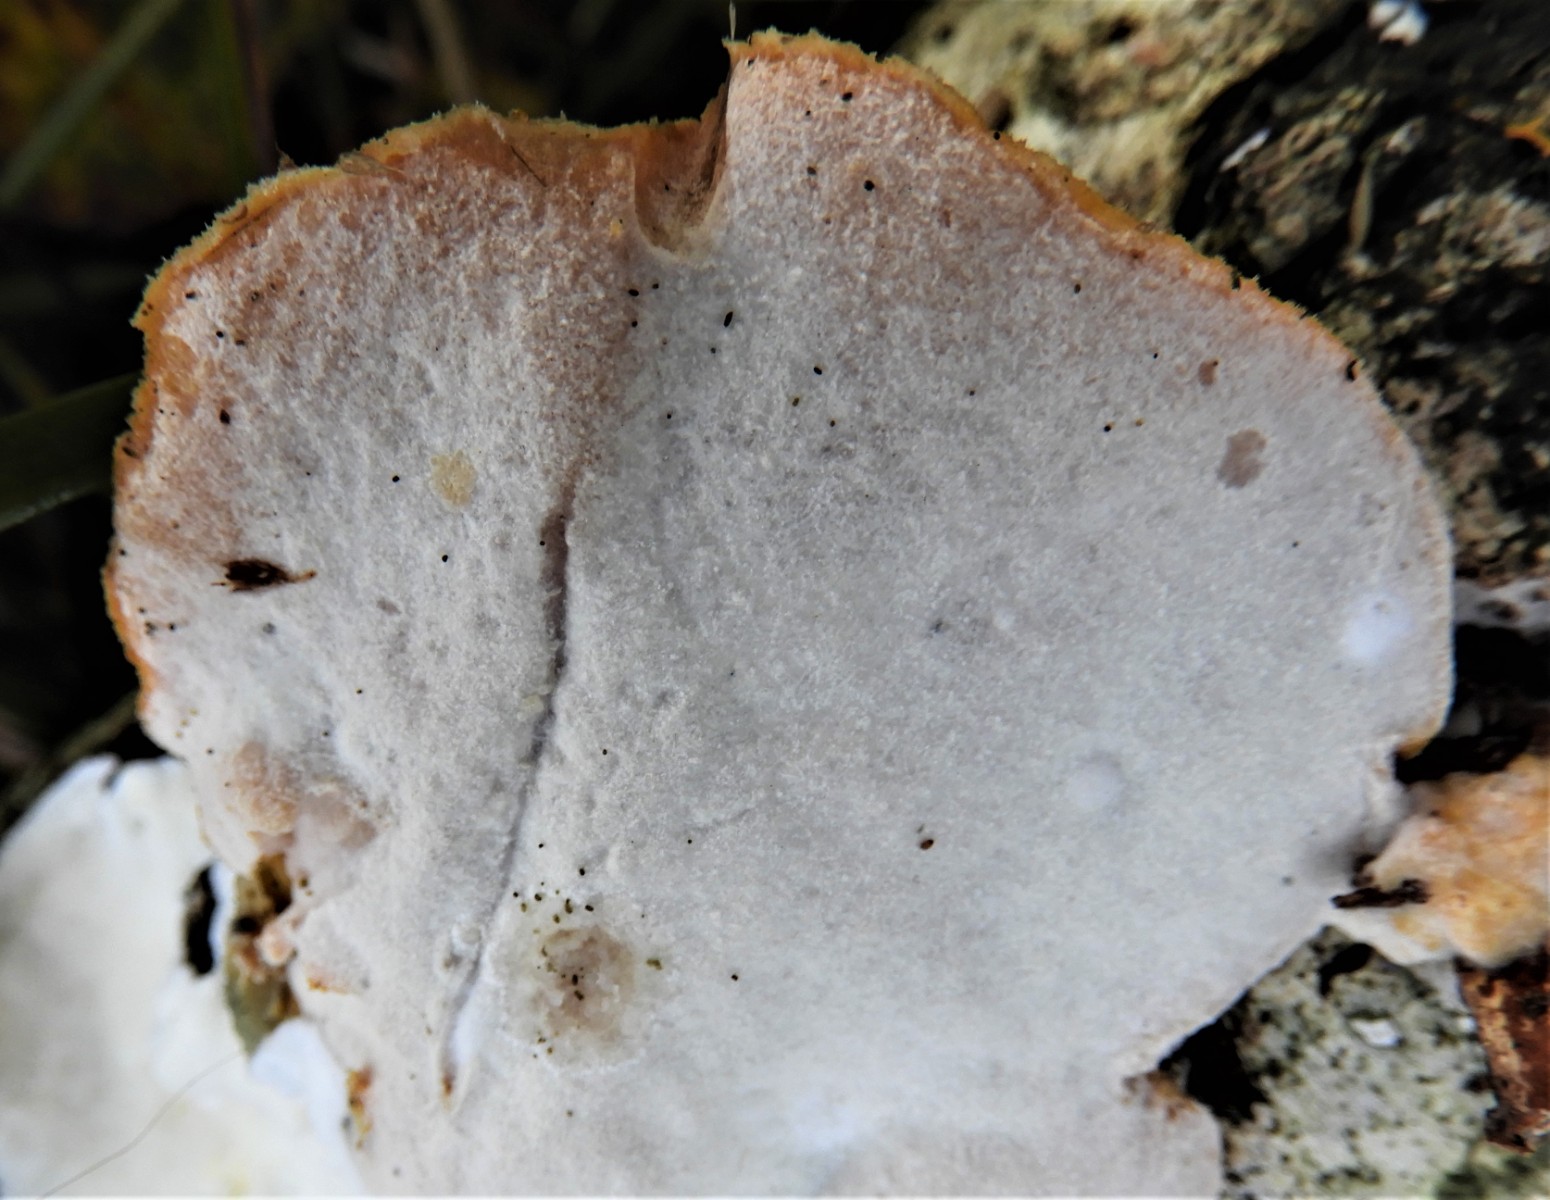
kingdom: Fungi
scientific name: Fungi
